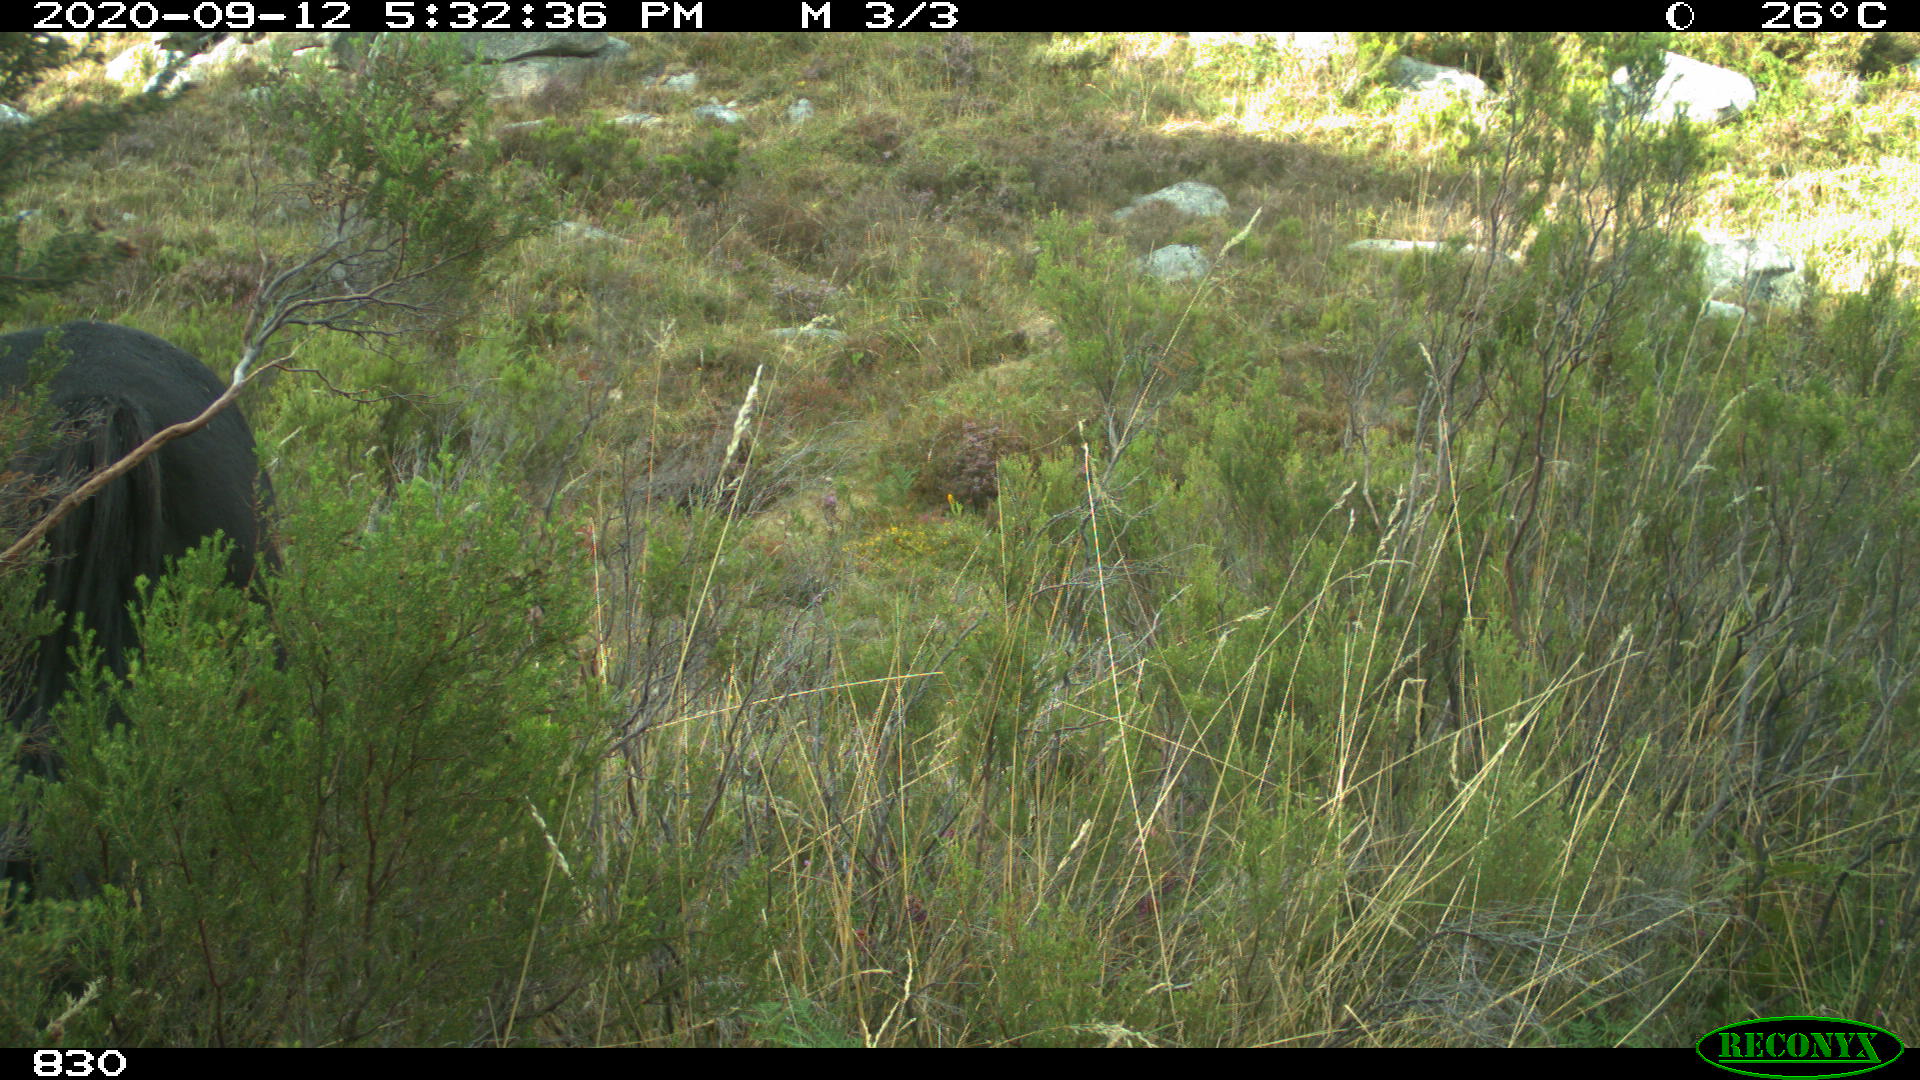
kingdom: Animalia
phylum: Chordata
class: Mammalia
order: Perissodactyla
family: Equidae
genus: Equus
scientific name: Equus caballus
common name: Horse
